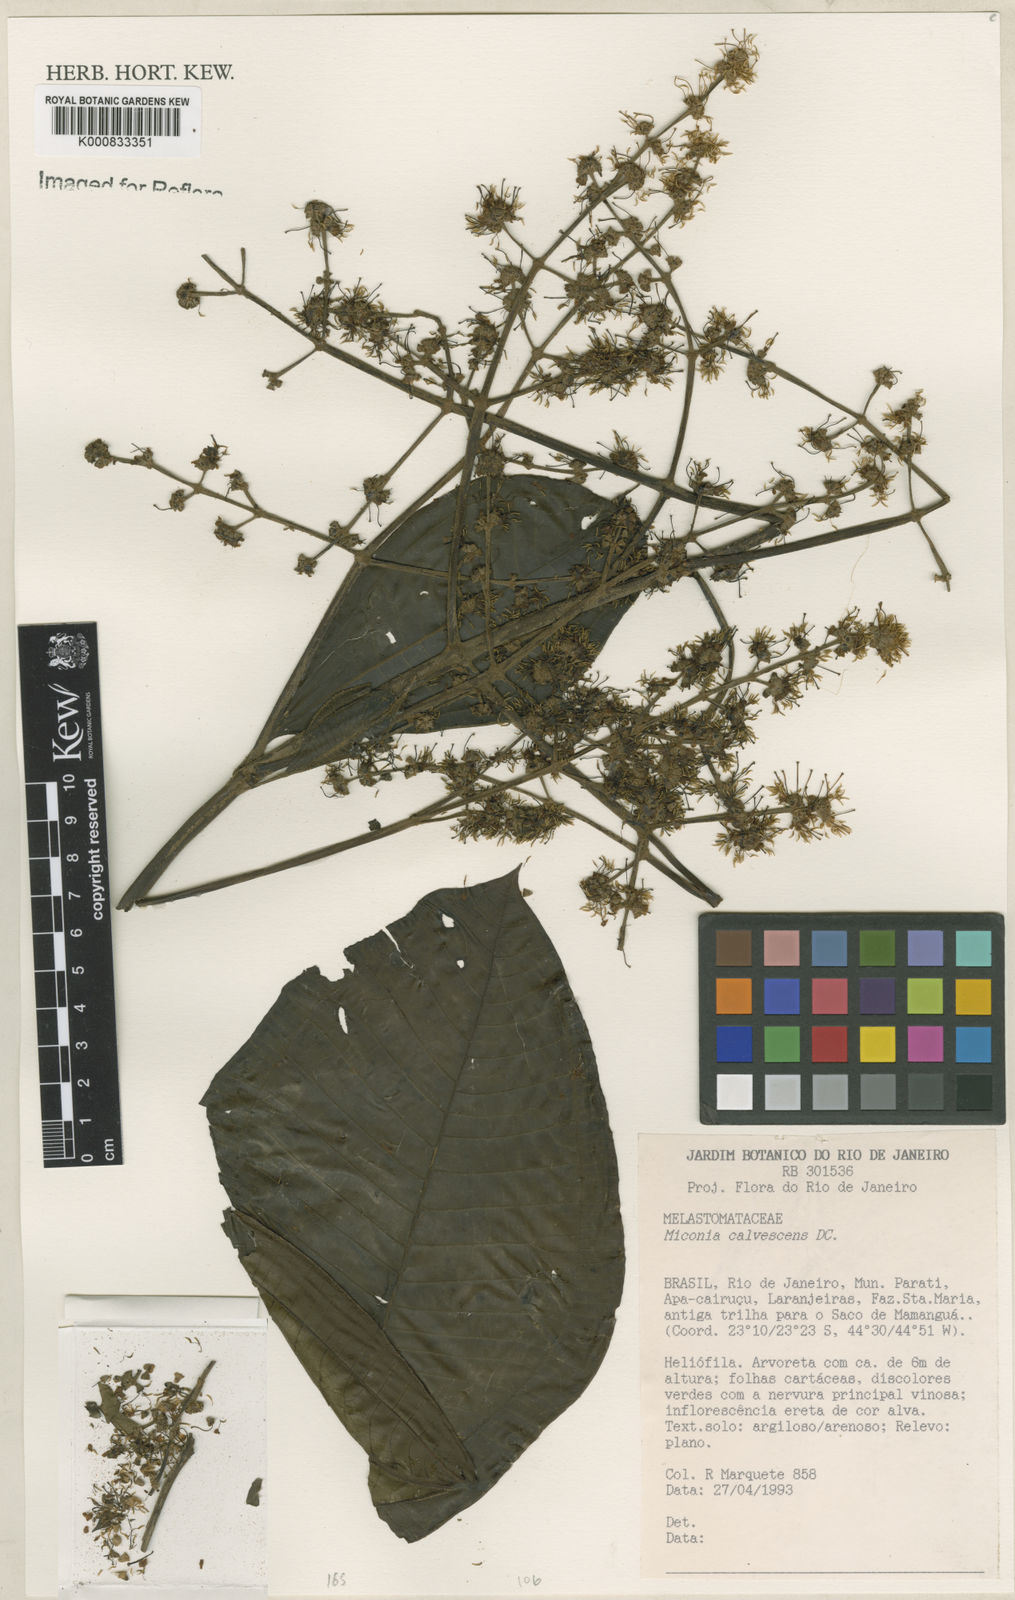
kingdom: Plantae
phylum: Tracheophyta
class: Magnoliopsida
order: Myrtales
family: Melastomataceae
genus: Miconia
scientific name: Miconia calvescens
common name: Purple plague
